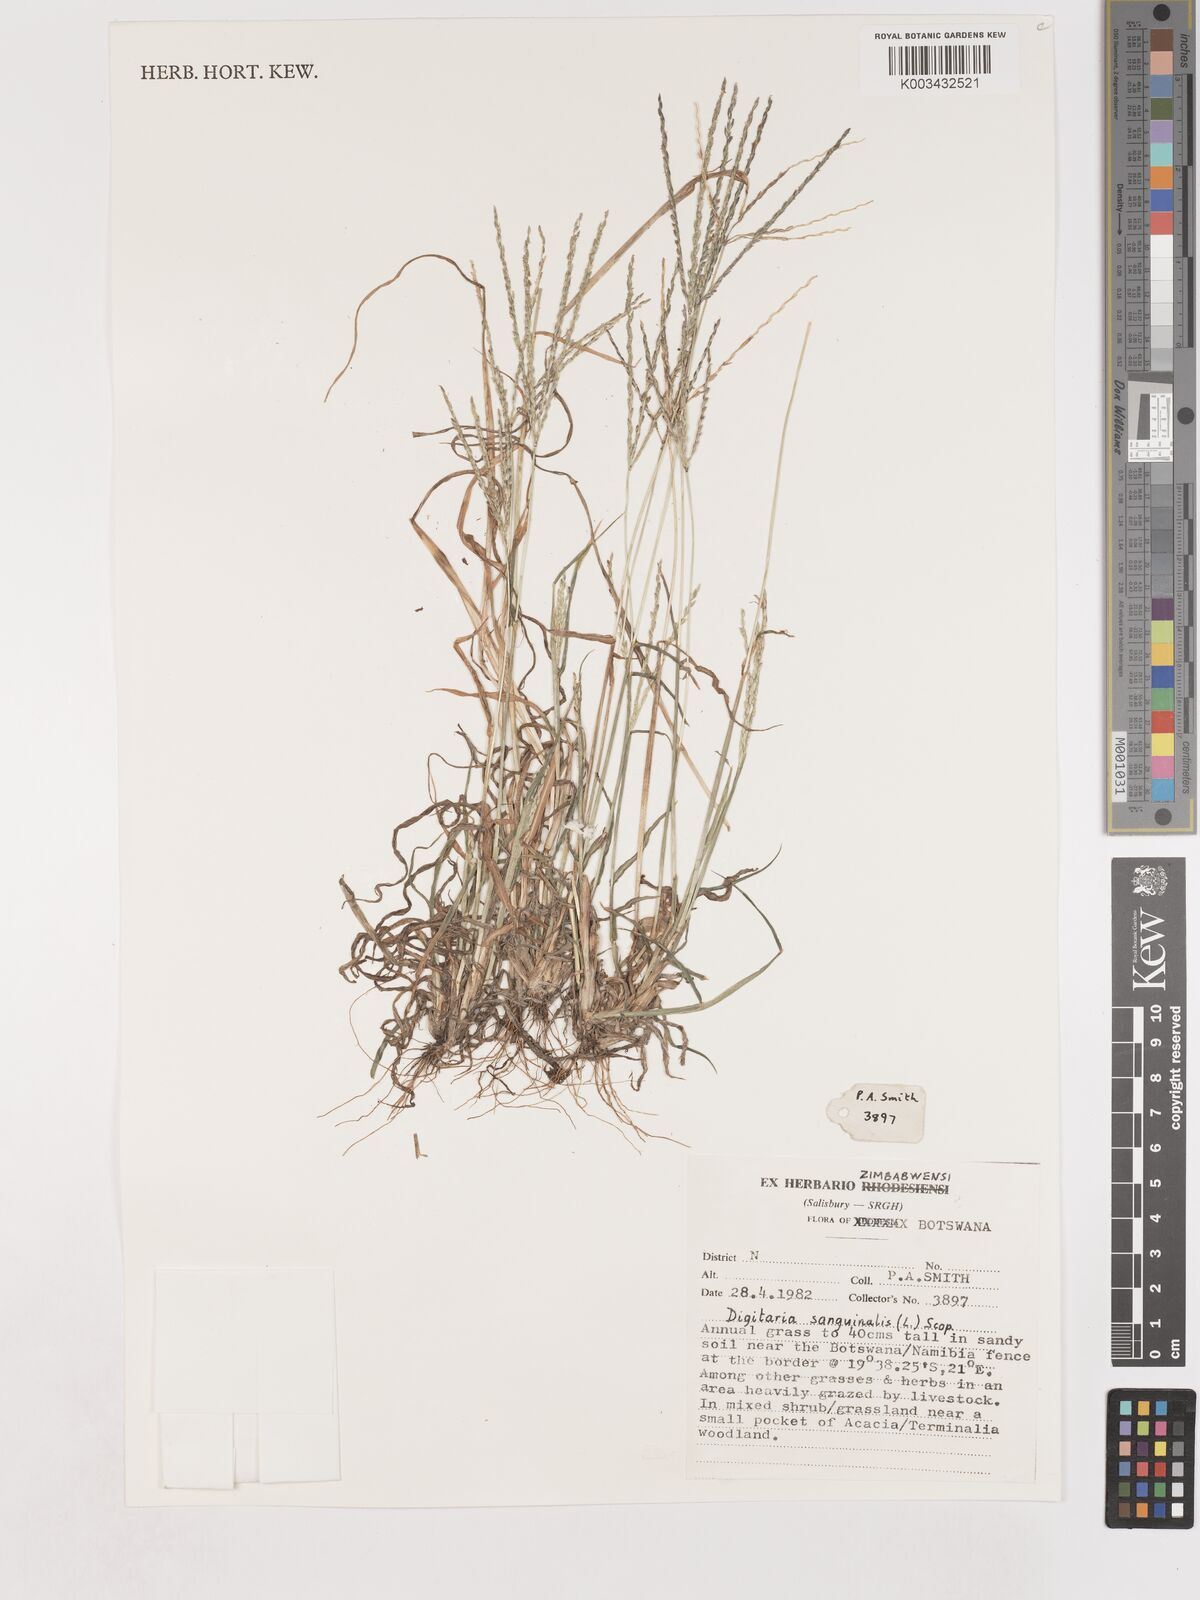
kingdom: Plantae
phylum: Tracheophyta
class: Liliopsida
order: Poales
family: Poaceae
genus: Digitaria
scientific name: Digitaria sanguinalis
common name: Hairy crabgrass
